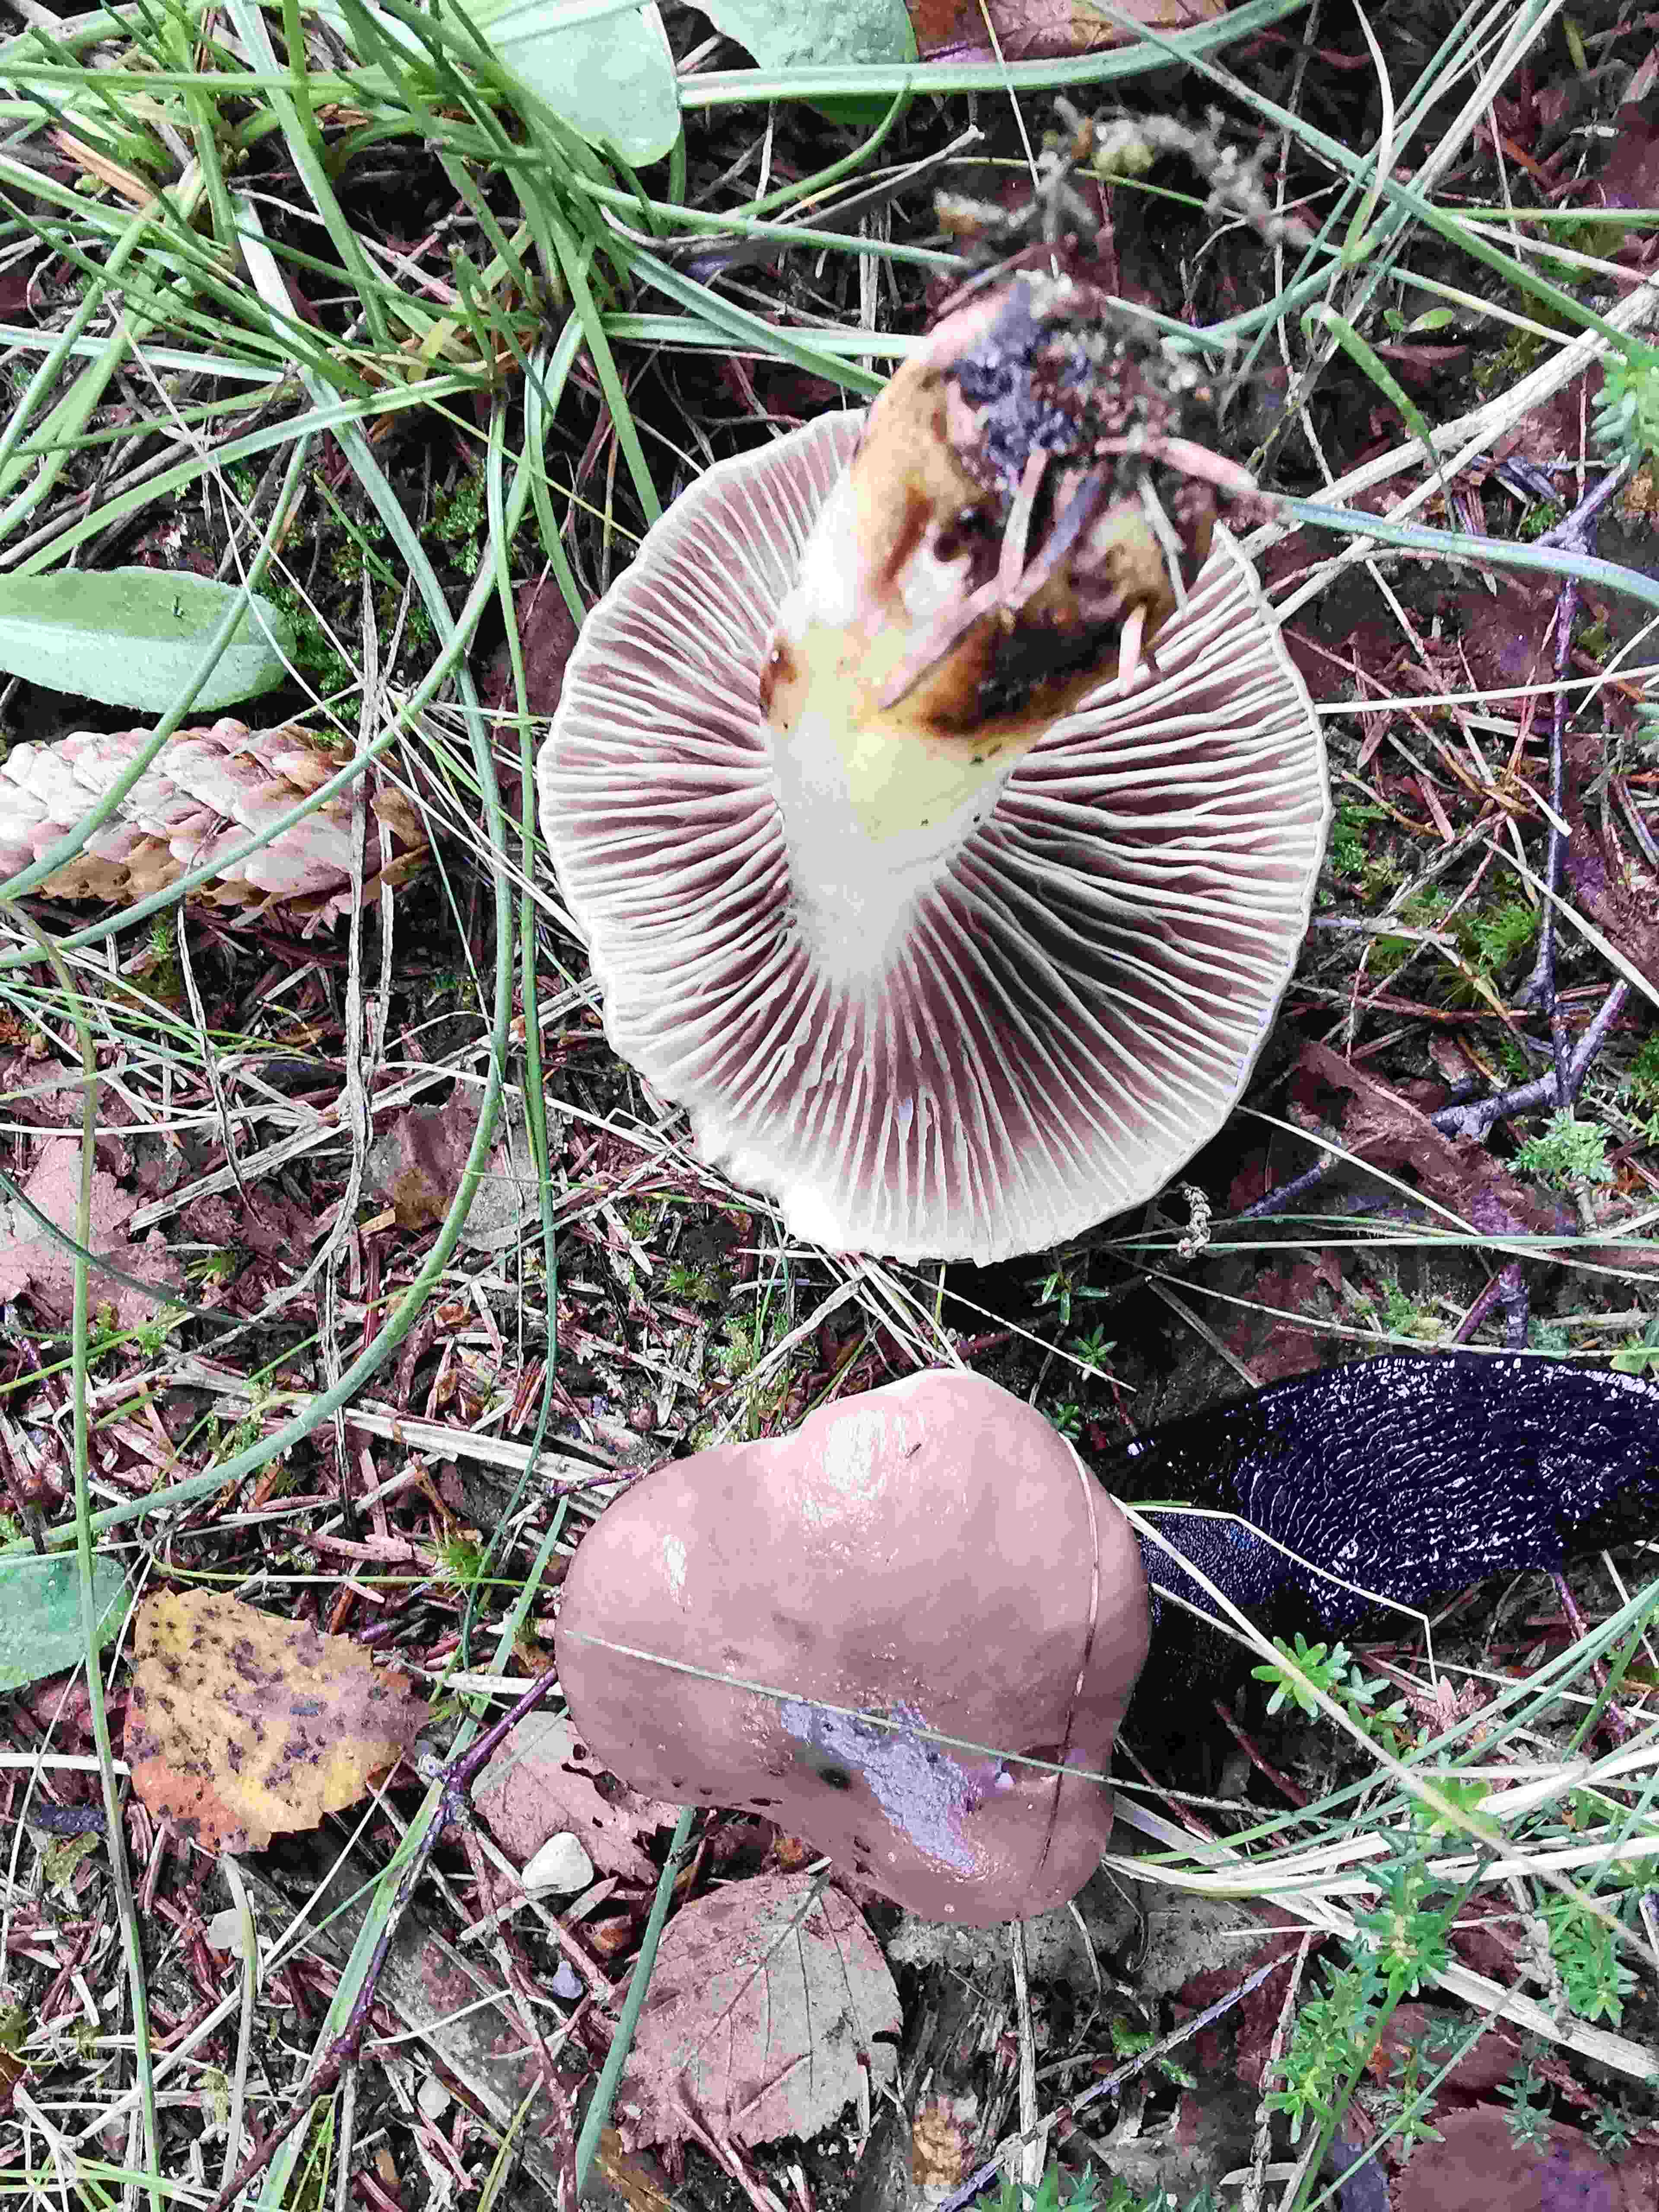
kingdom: Fungi
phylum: Basidiomycota
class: Agaricomycetes
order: Boletales
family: Gomphidiaceae
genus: Gomphidius
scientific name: Gomphidius glutinosus
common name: grå slimslør
